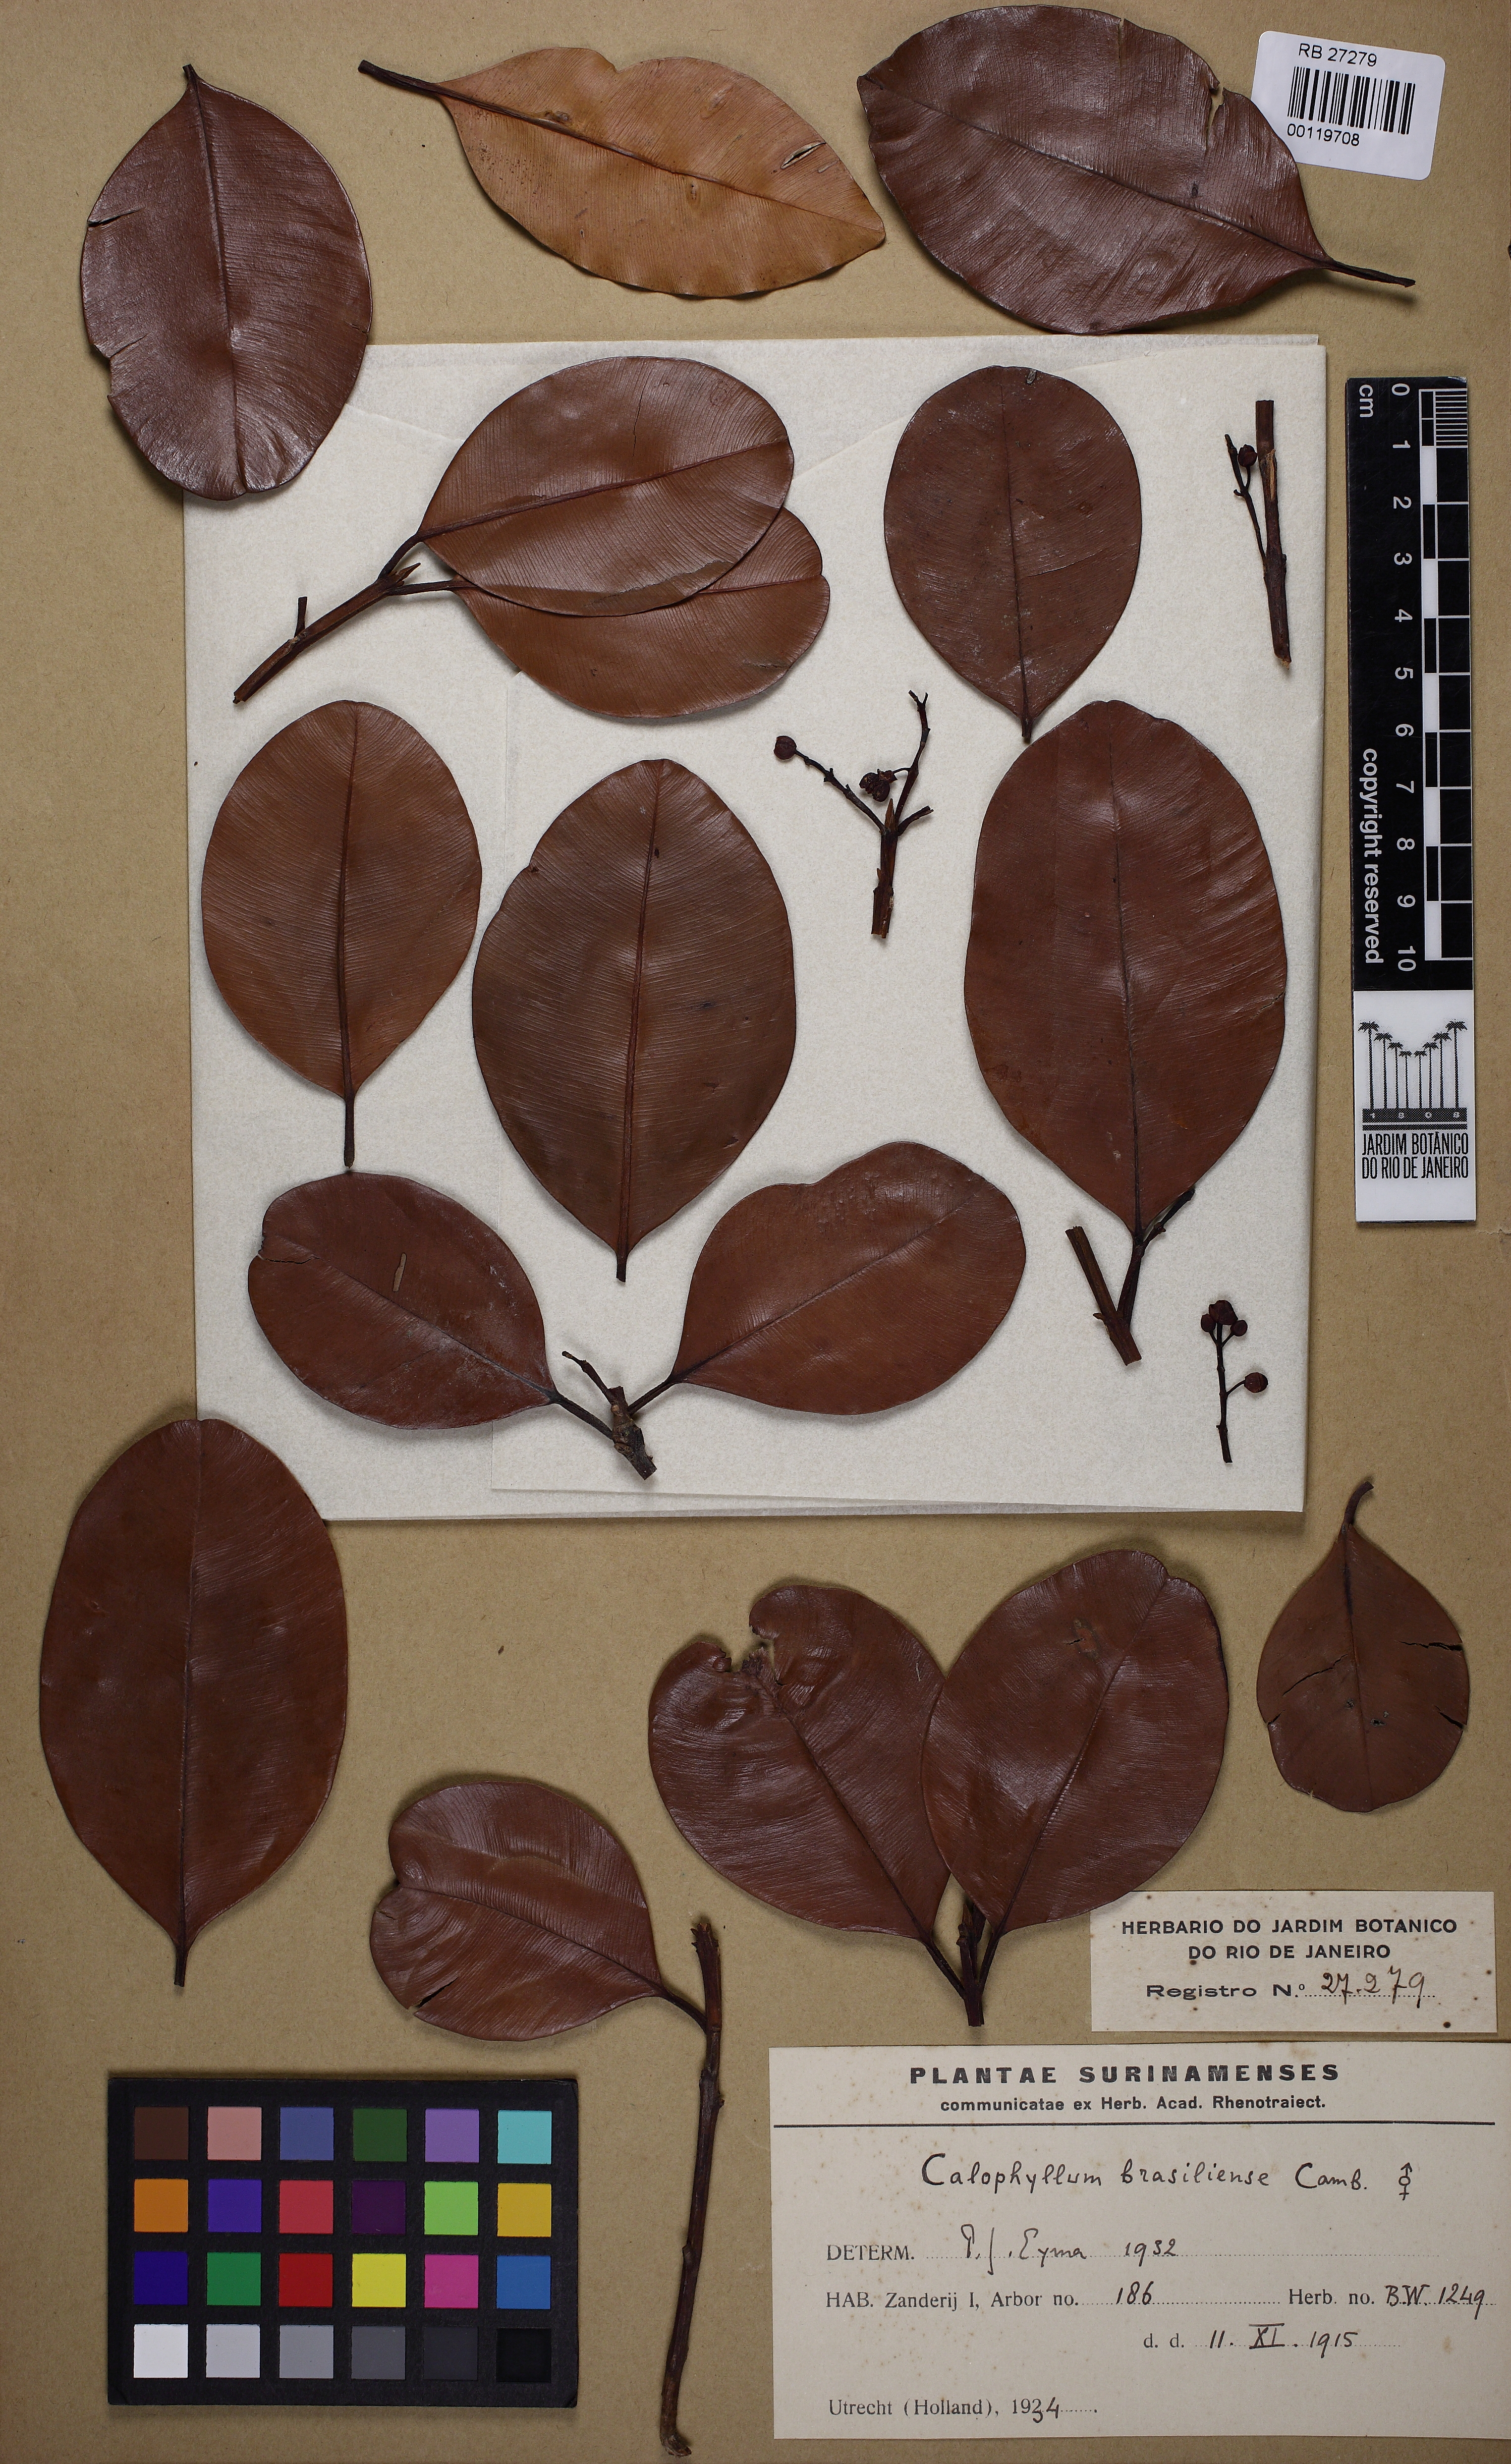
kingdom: Plantae
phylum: Tracheophyta
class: Magnoliopsida
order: Malpighiales
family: Calophyllaceae
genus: Calophyllum
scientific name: Calophyllum brasiliense
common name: Santa maria
